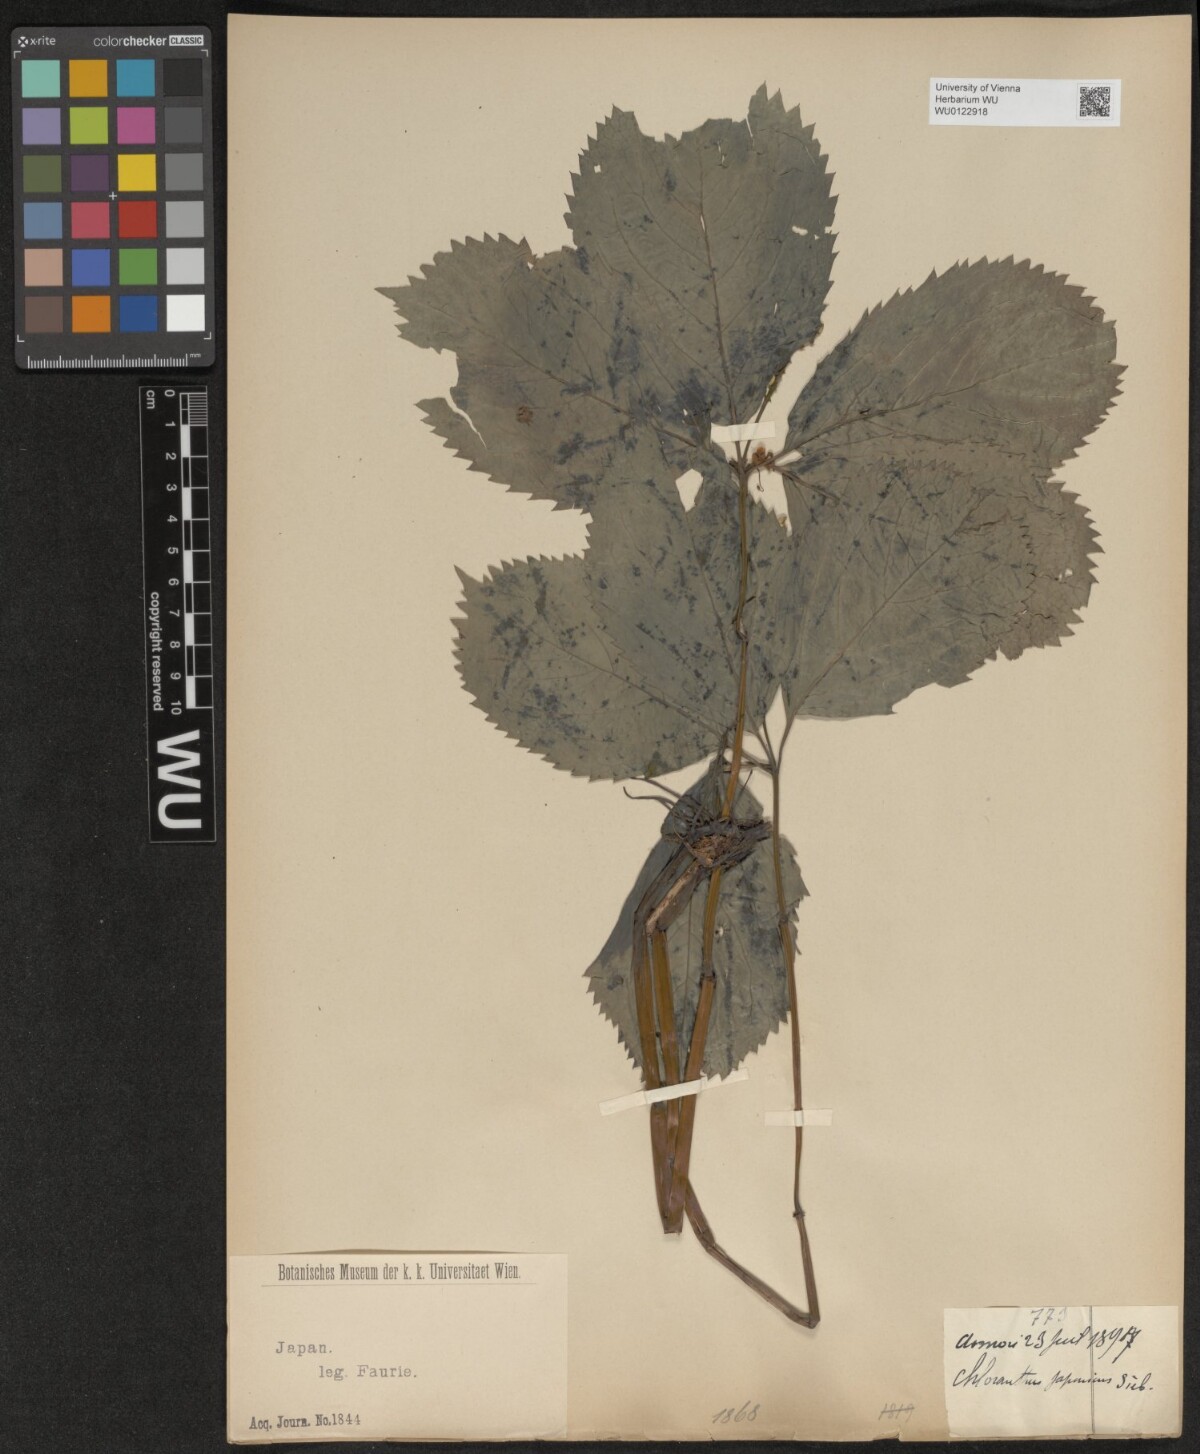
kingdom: Plantae
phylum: Tracheophyta
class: Magnoliopsida
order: Chloranthales
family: Chloranthaceae
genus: Chloranthus
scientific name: Chloranthus japonicus
